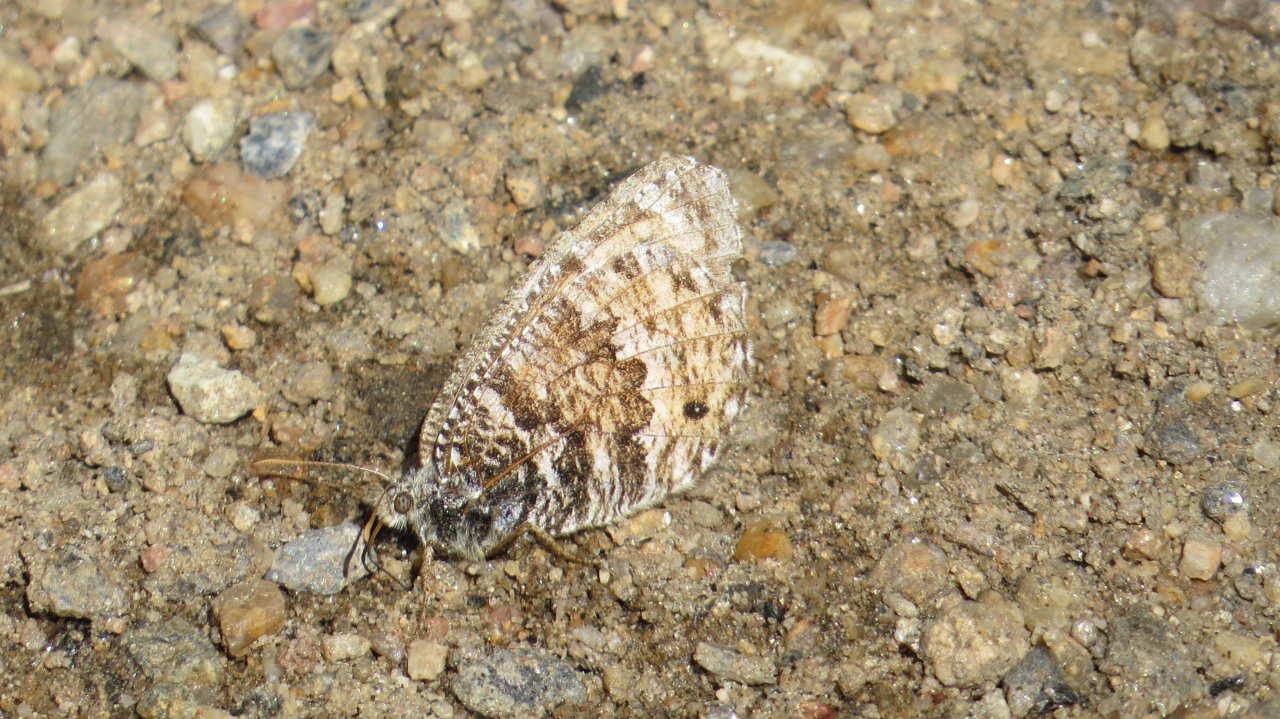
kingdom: Animalia
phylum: Arthropoda
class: Insecta
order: Lepidoptera
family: Nymphalidae
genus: Oeneis
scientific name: Oeneis chryxus
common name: Chryxus Arctic
